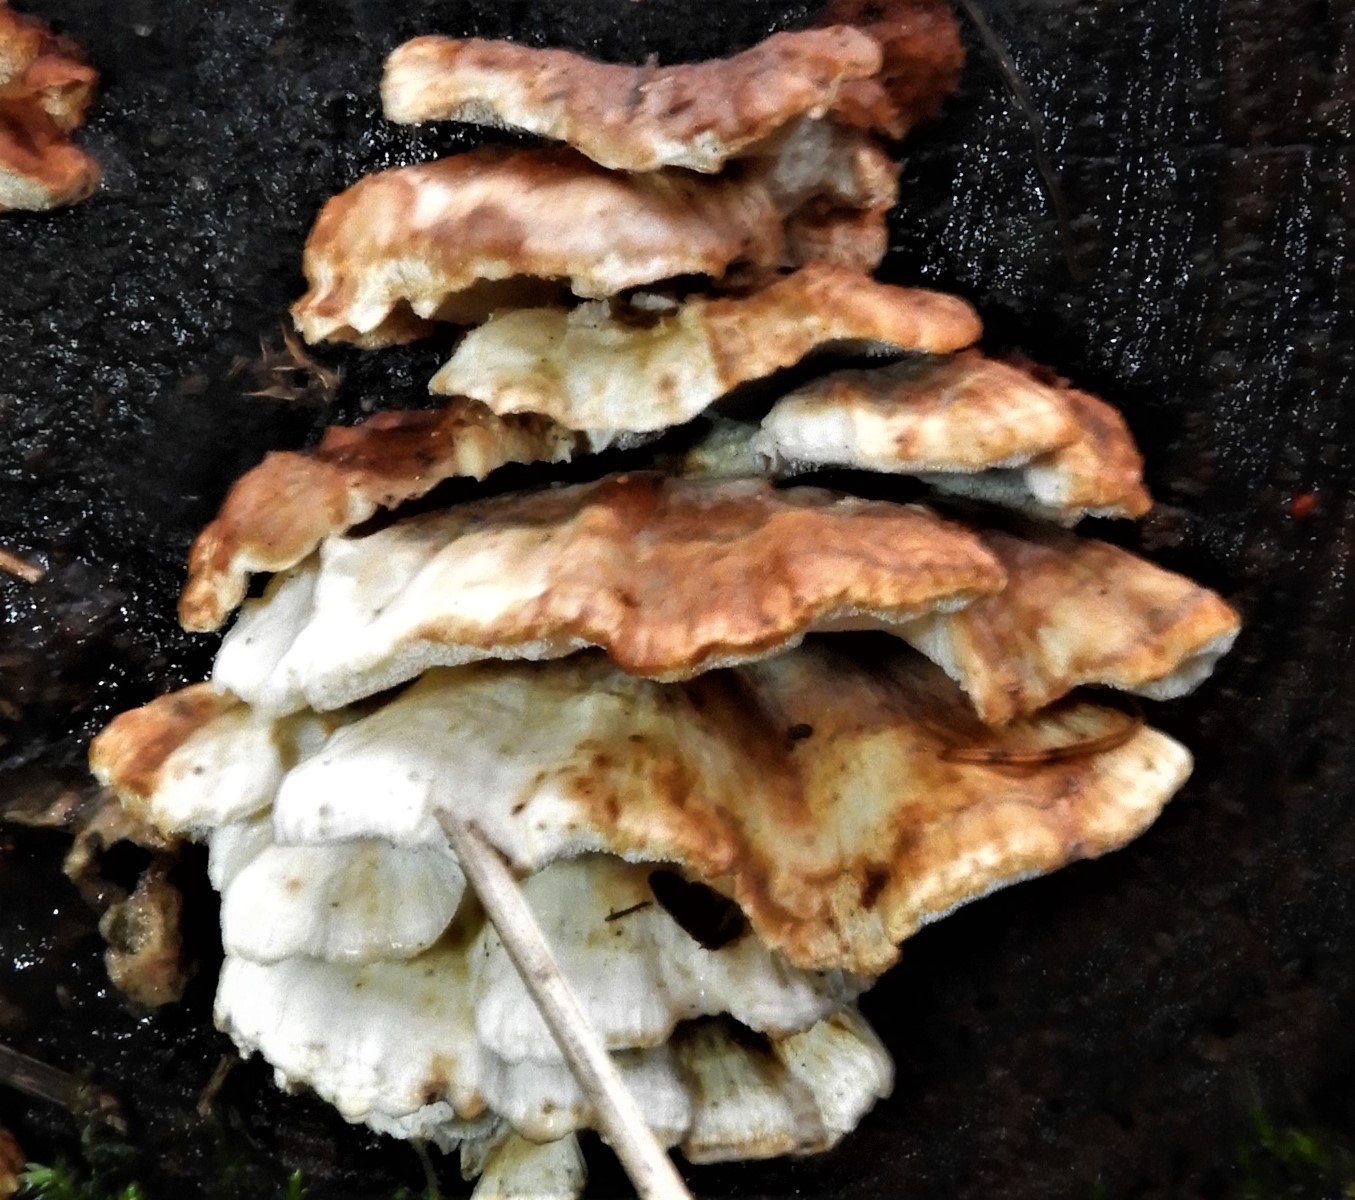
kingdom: Fungi
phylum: Basidiomycota
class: Agaricomycetes
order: Polyporales
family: Fomitopsidaceae
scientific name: Fomitopsidaceae
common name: hovporesvampfamilien
